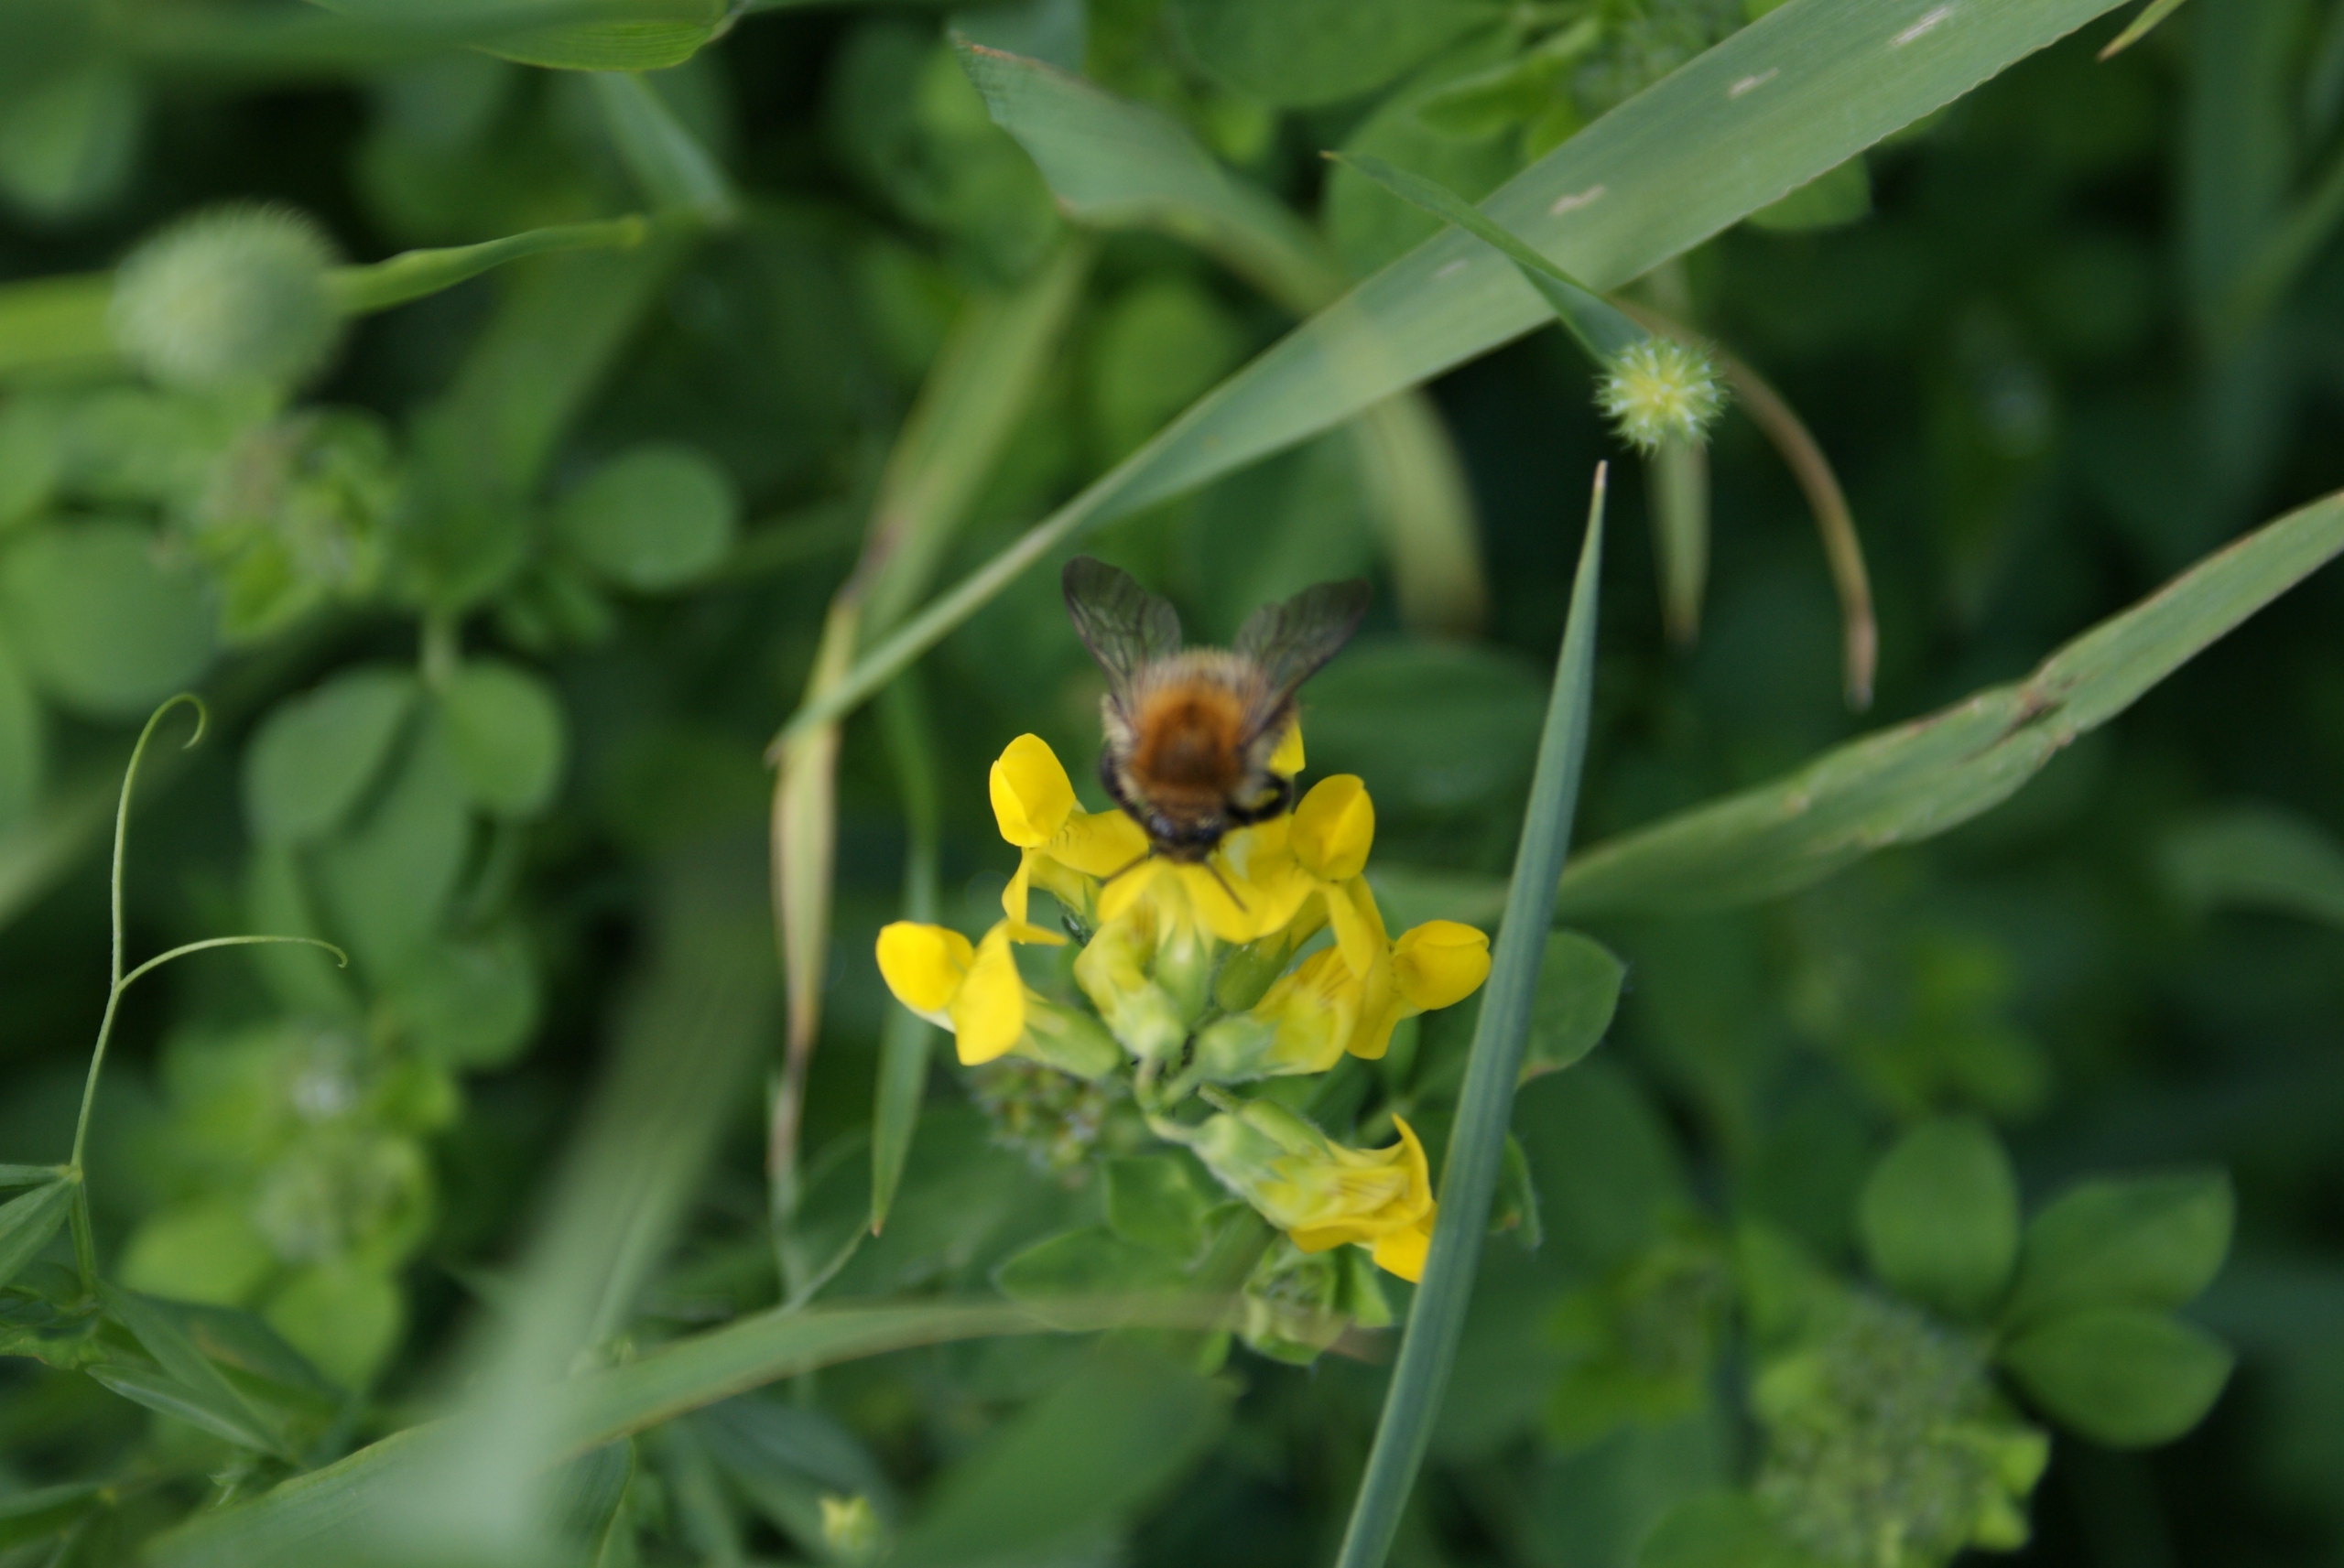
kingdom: Animalia
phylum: Arthropoda
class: Insecta
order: Hymenoptera
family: Apidae
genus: Bombus
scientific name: Bombus pascuorum
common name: Agerhumle
